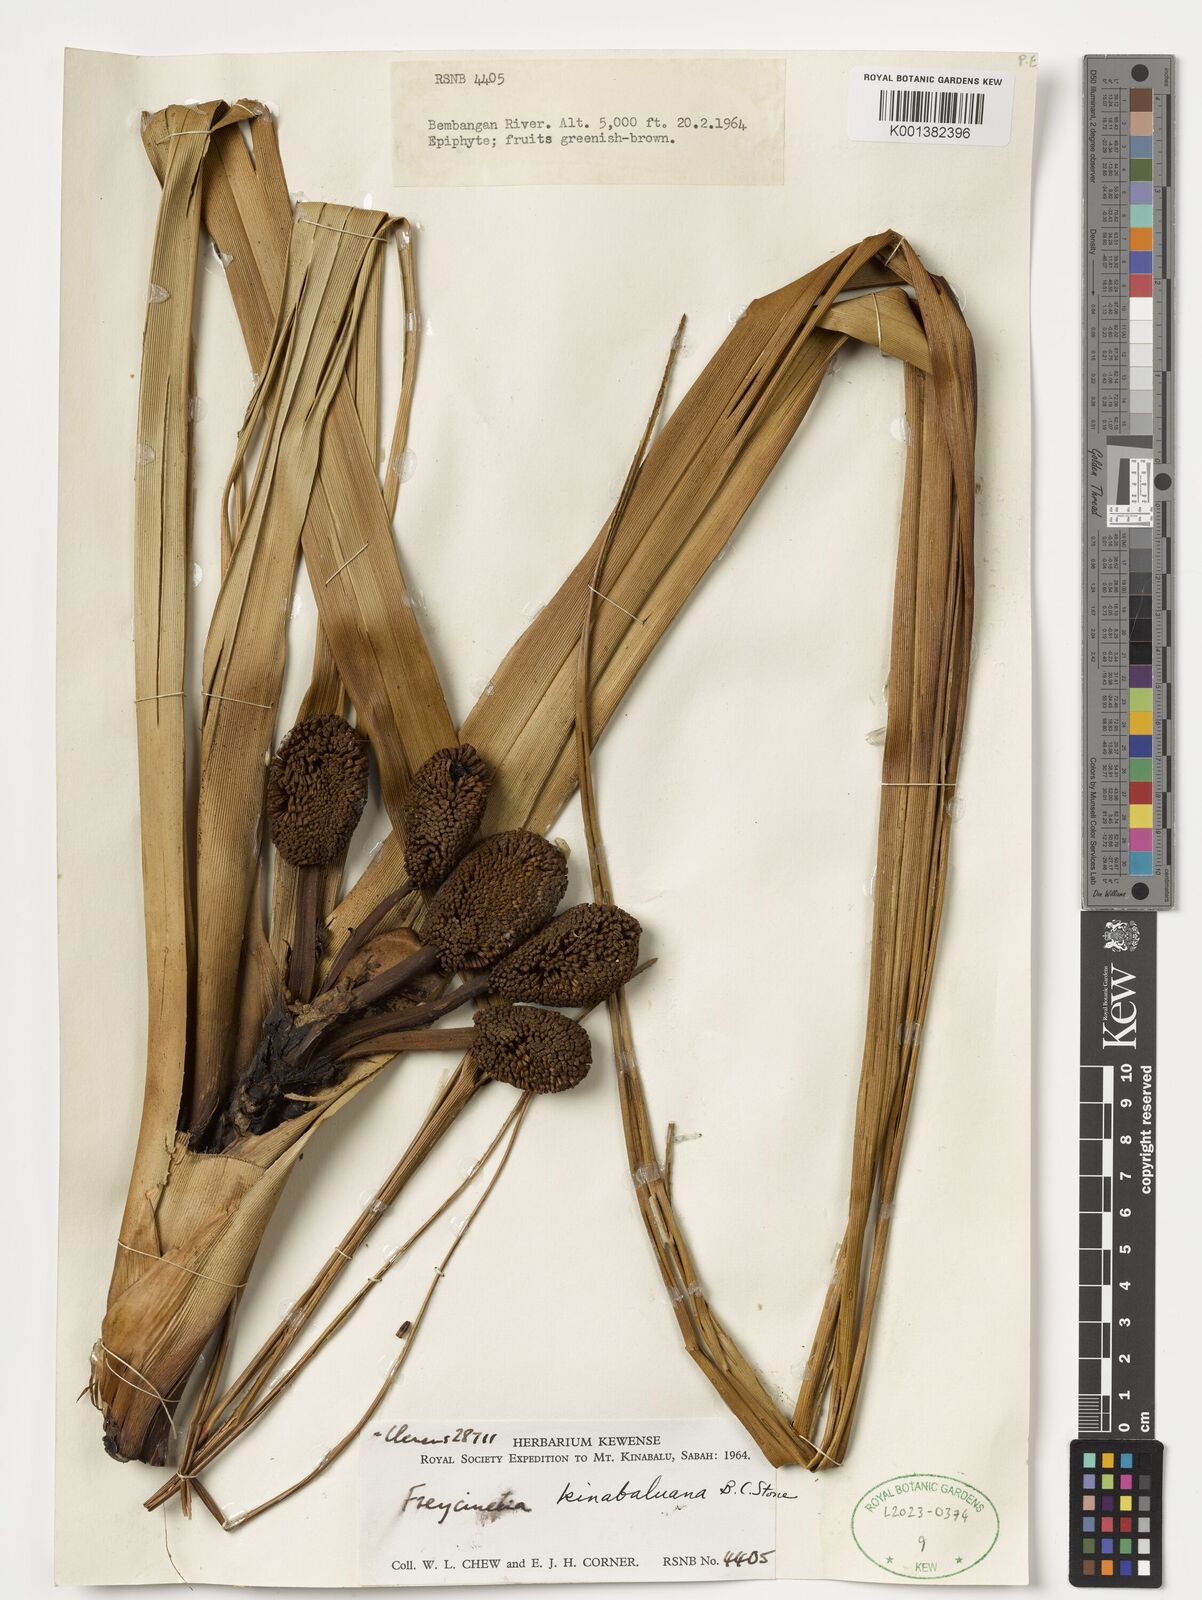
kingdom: Plantae
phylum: Tracheophyta
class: Liliopsida
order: Pandanales
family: Pandanaceae
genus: Freycinetia
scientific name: Freycinetia kinabaluana
